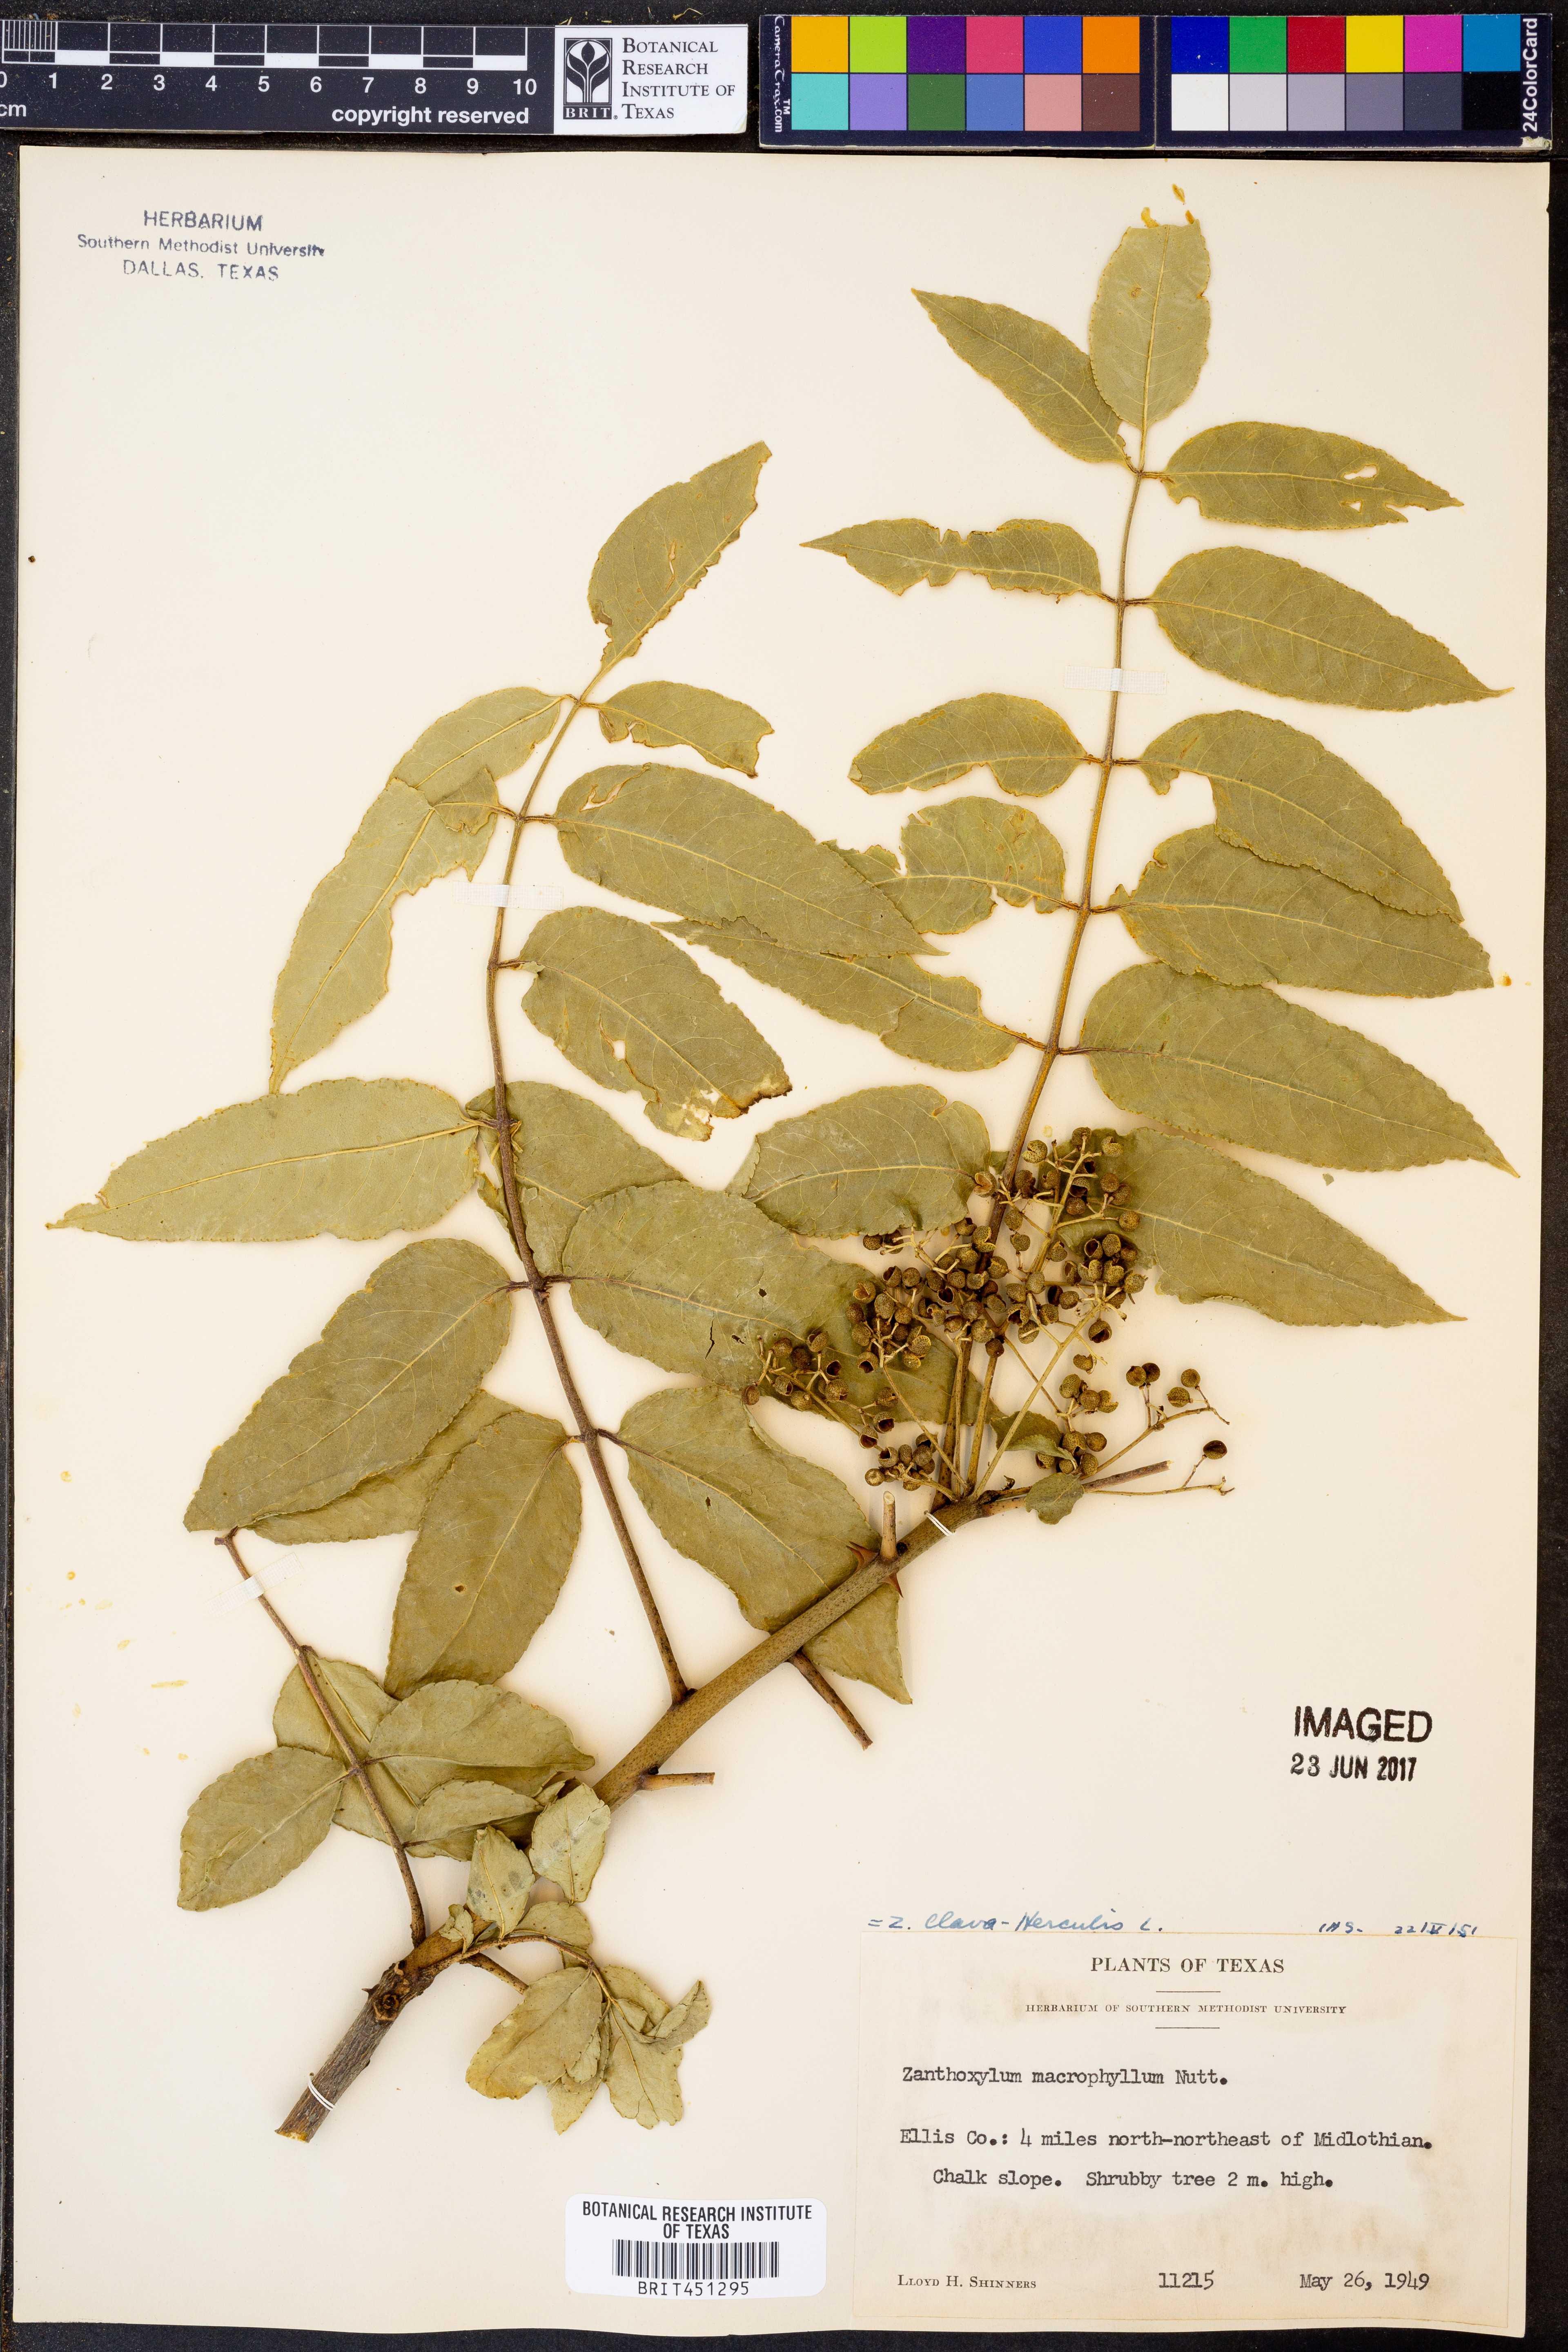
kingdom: Plantae
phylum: Tracheophyta
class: Magnoliopsida
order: Sapindales
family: Rutaceae
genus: Zanthoxylum
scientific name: Zanthoxylum avicennae
